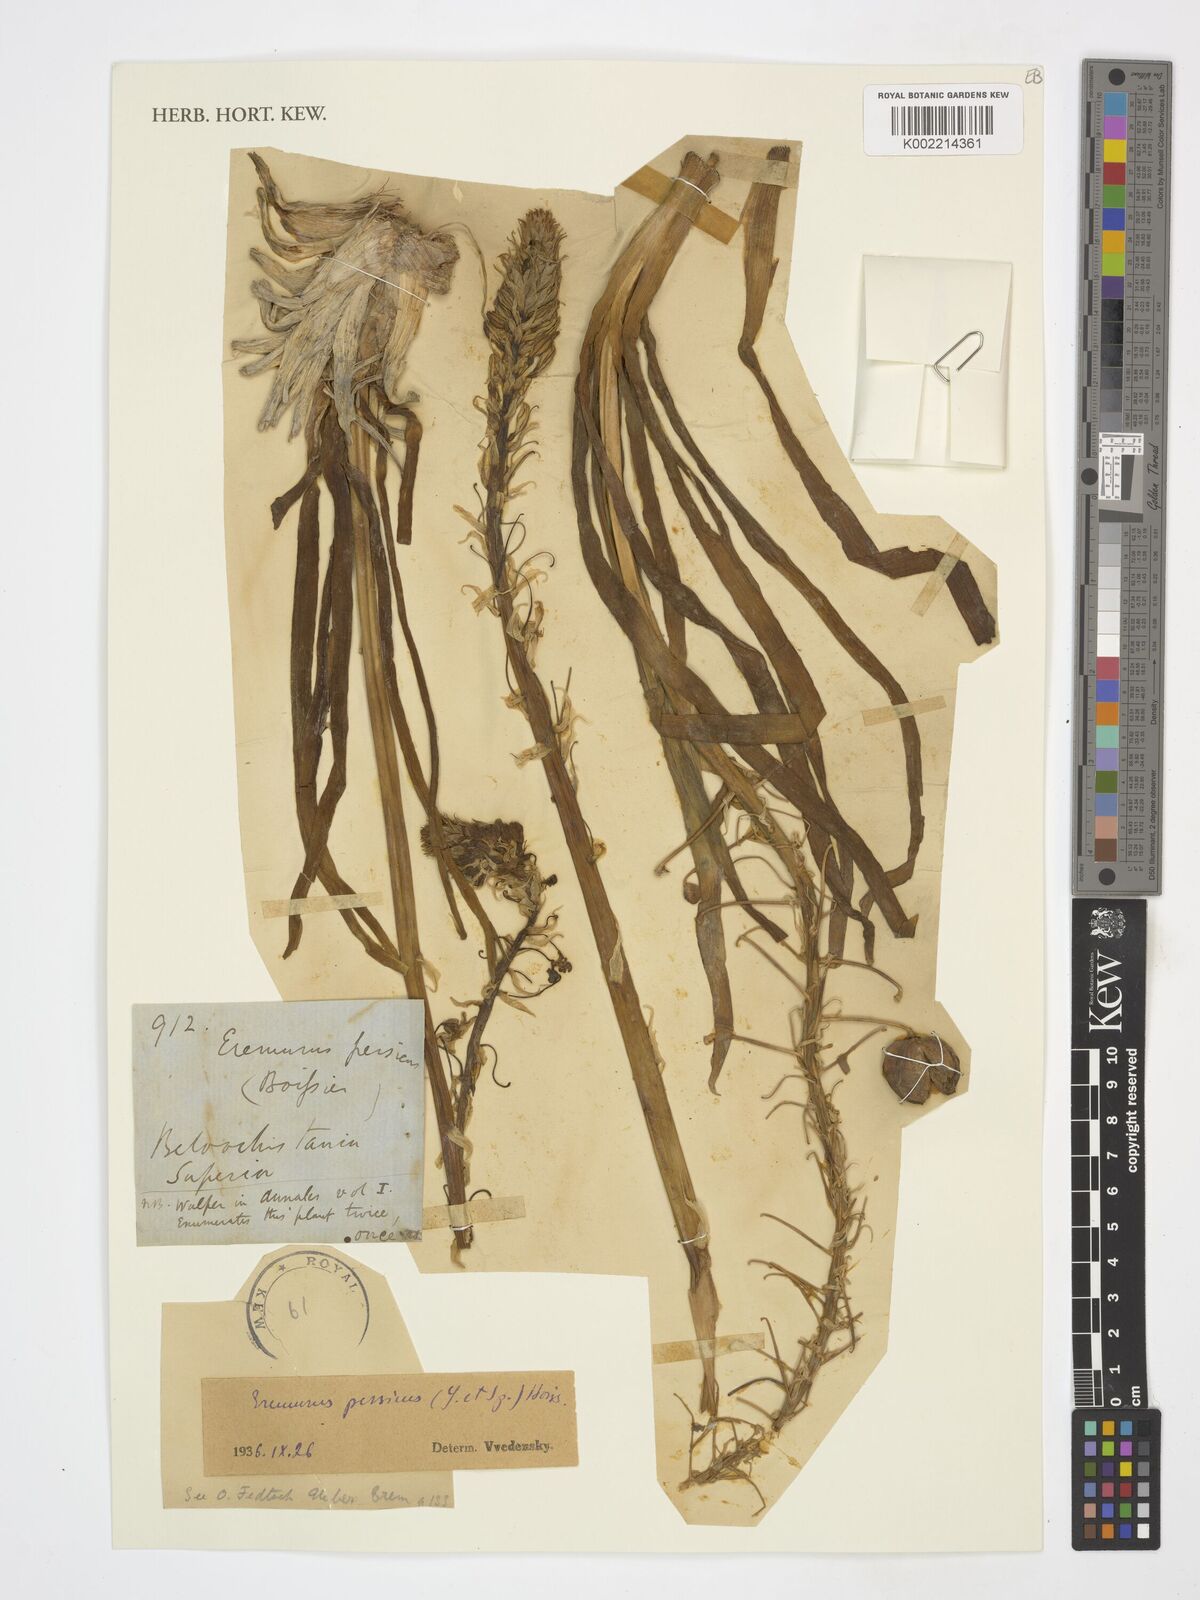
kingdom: Plantae
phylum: Tracheophyta
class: Liliopsida
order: Asparagales
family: Asphodelaceae
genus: Eremurus
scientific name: Eremurus
